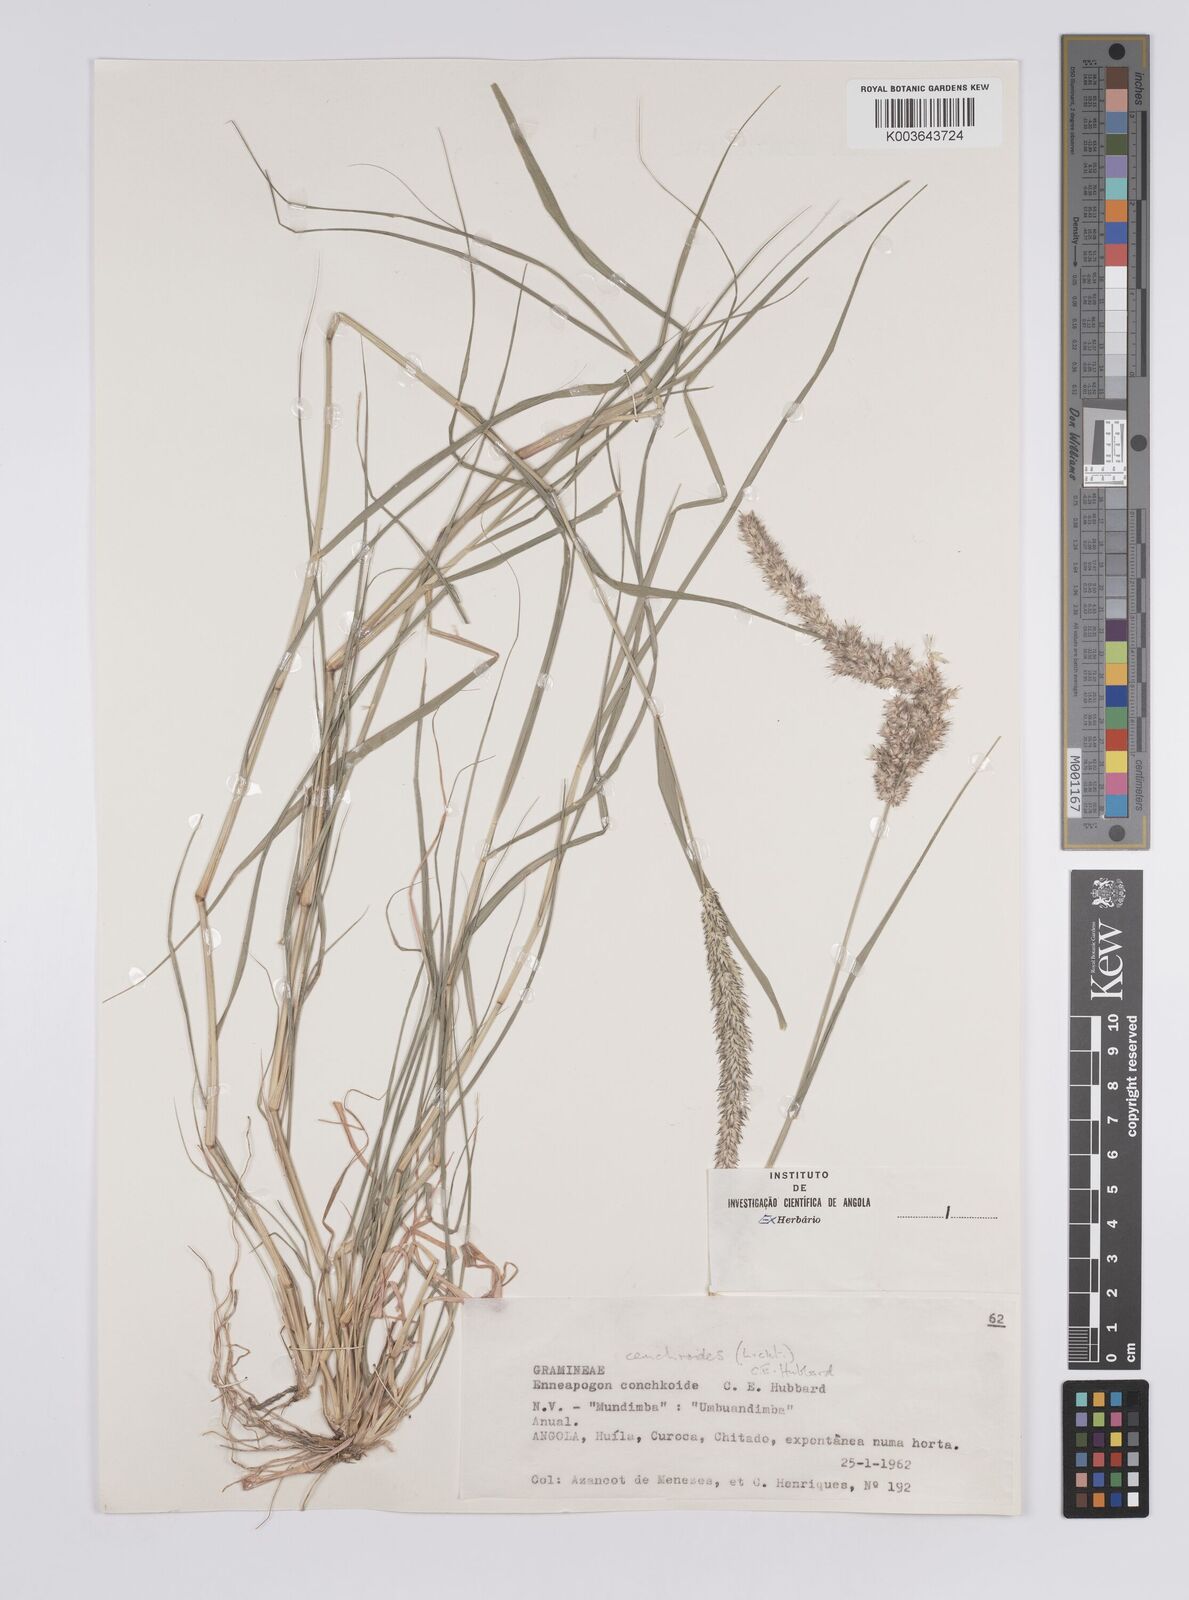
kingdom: Plantae
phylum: Tracheophyta
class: Liliopsida
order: Poales
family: Poaceae
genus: Enneapogon
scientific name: Enneapogon cenchroides
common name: Soft feather pappusgrass
